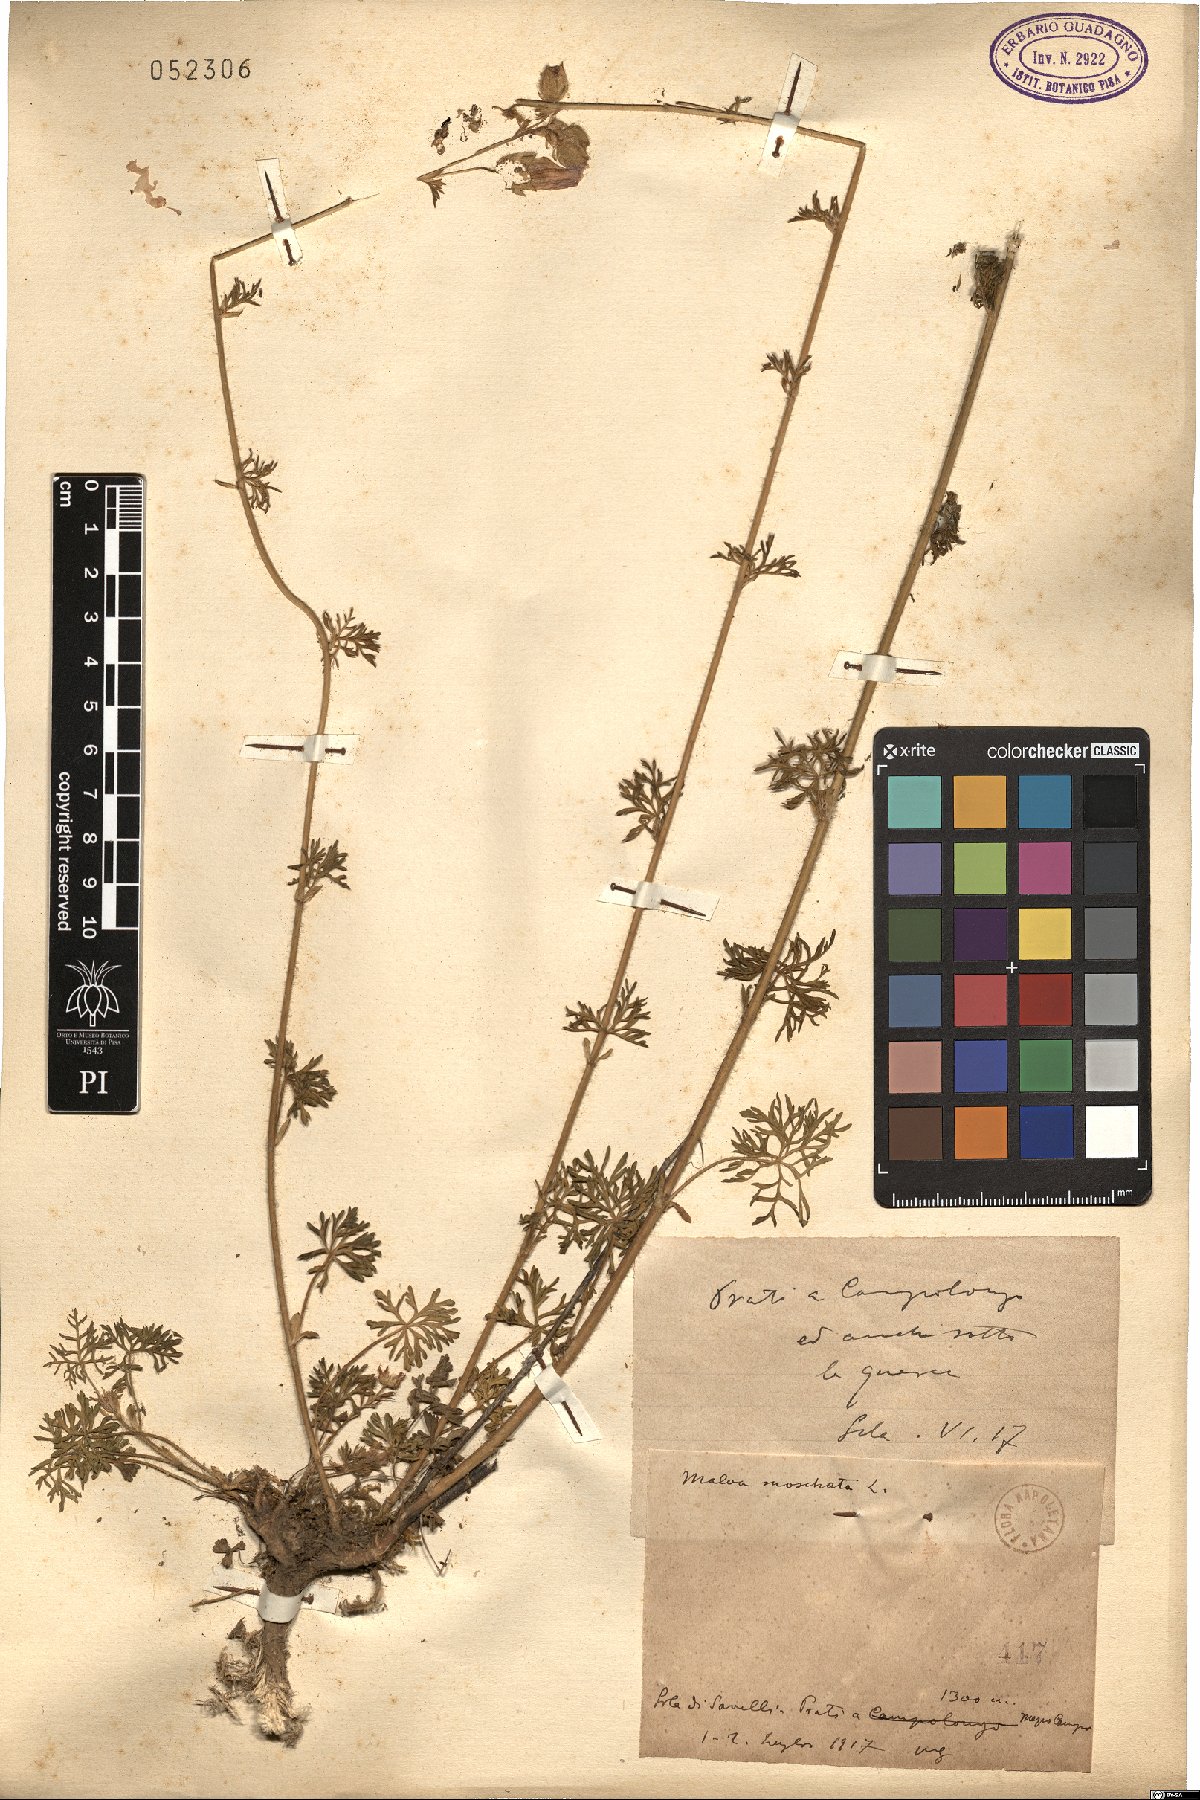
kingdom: Plantae
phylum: Tracheophyta
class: Magnoliopsida
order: Malvales
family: Malvaceae
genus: Malva
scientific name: Malva moschata
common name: Musk mallow
